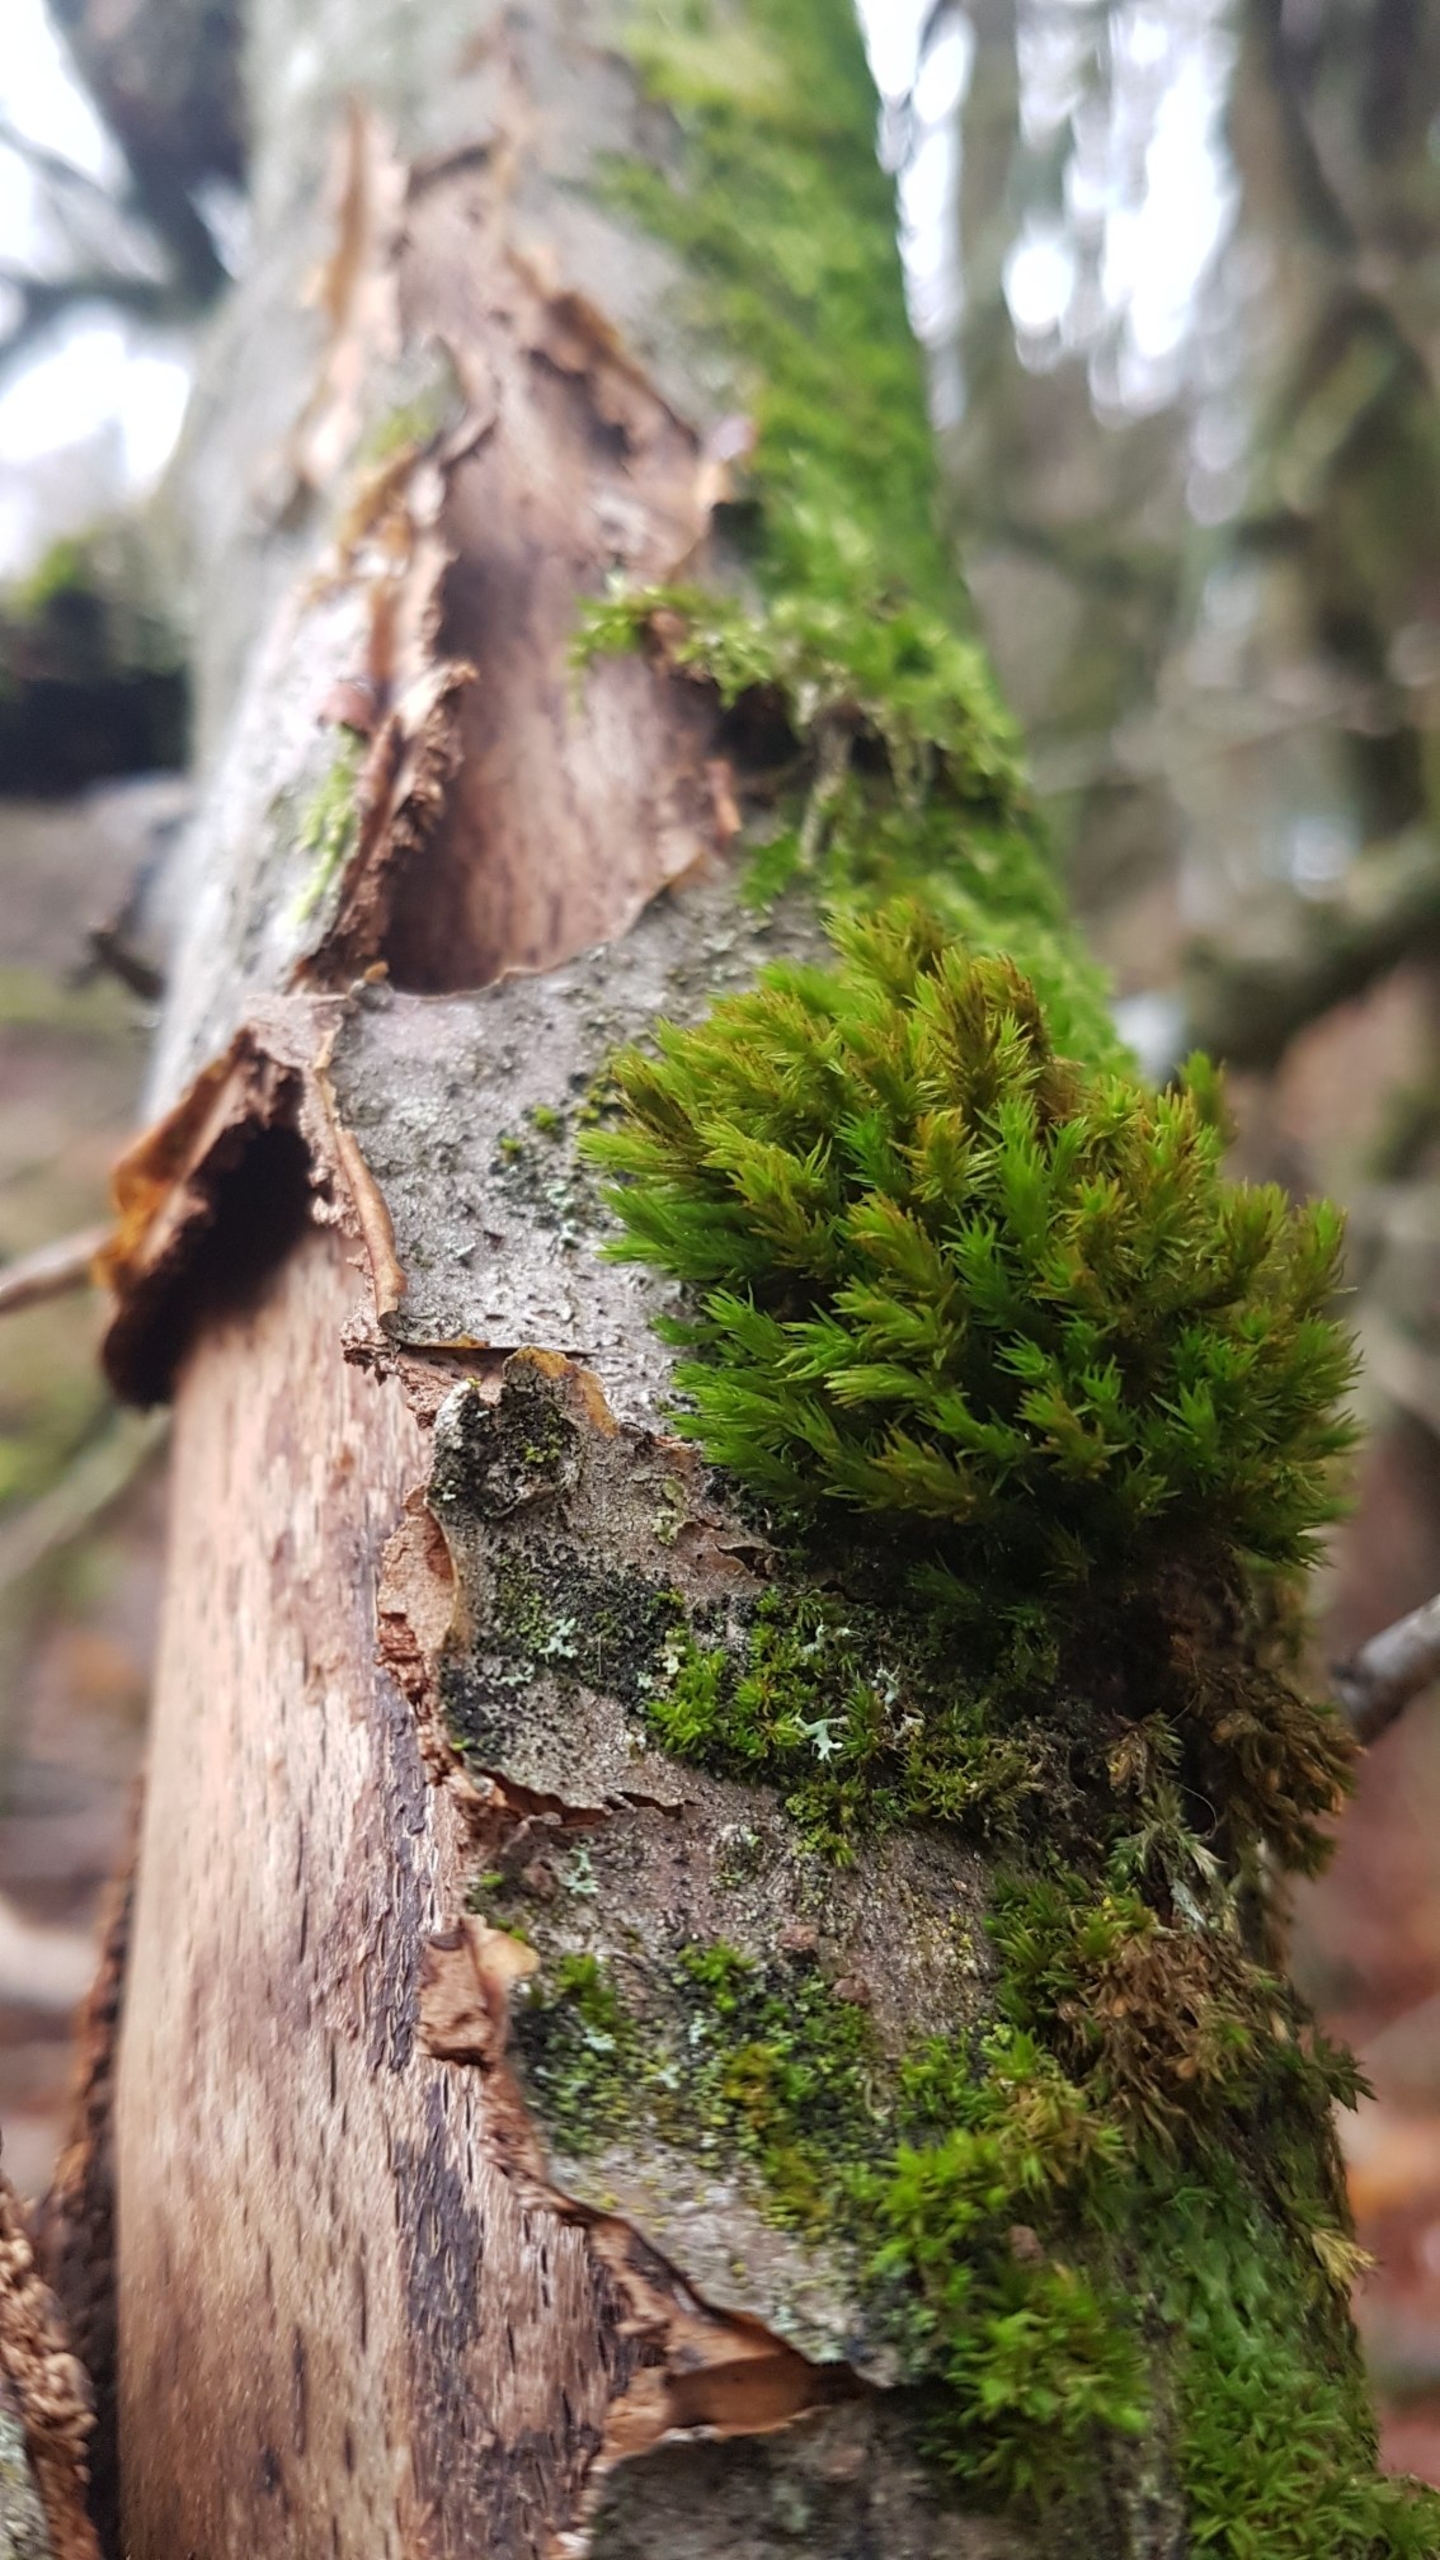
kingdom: Plantae
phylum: Bryophyta
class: Bryopsida
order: Orthotrichales
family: Orthotrichaceae
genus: Pulvigera
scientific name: Pulvigera lyellii
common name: Stor furehætte
